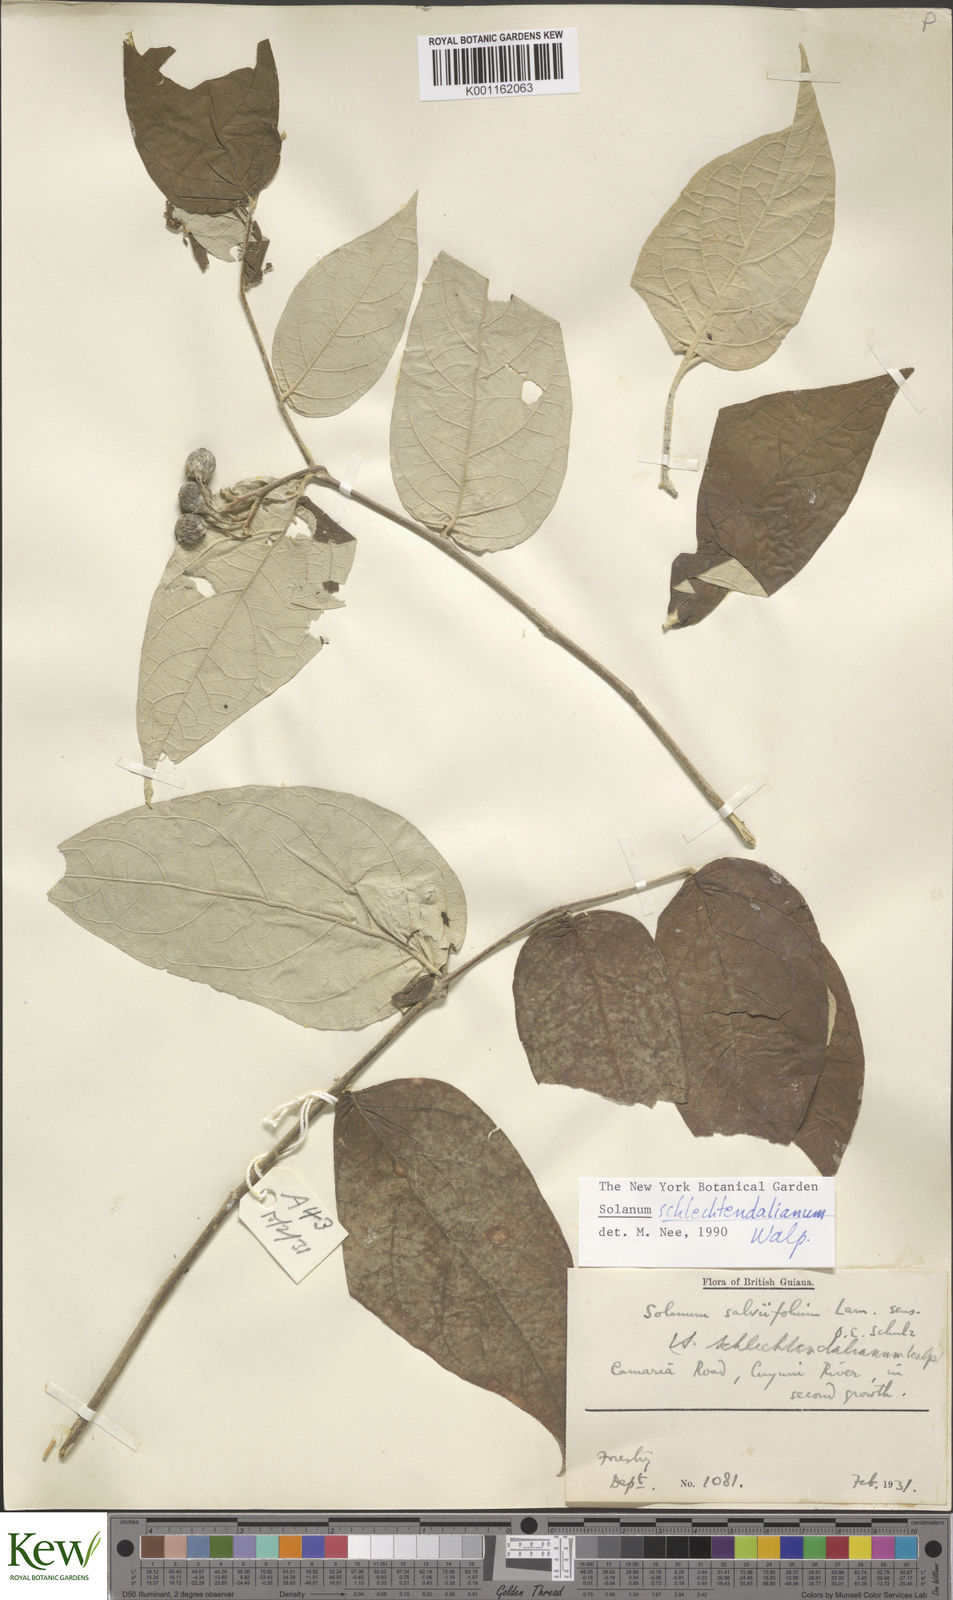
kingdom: Plantae
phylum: Tracheophyta
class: Magnoliopsida
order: Solanales
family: Solanaceae
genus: Solanum
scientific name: Solanum schlechtendalianum
